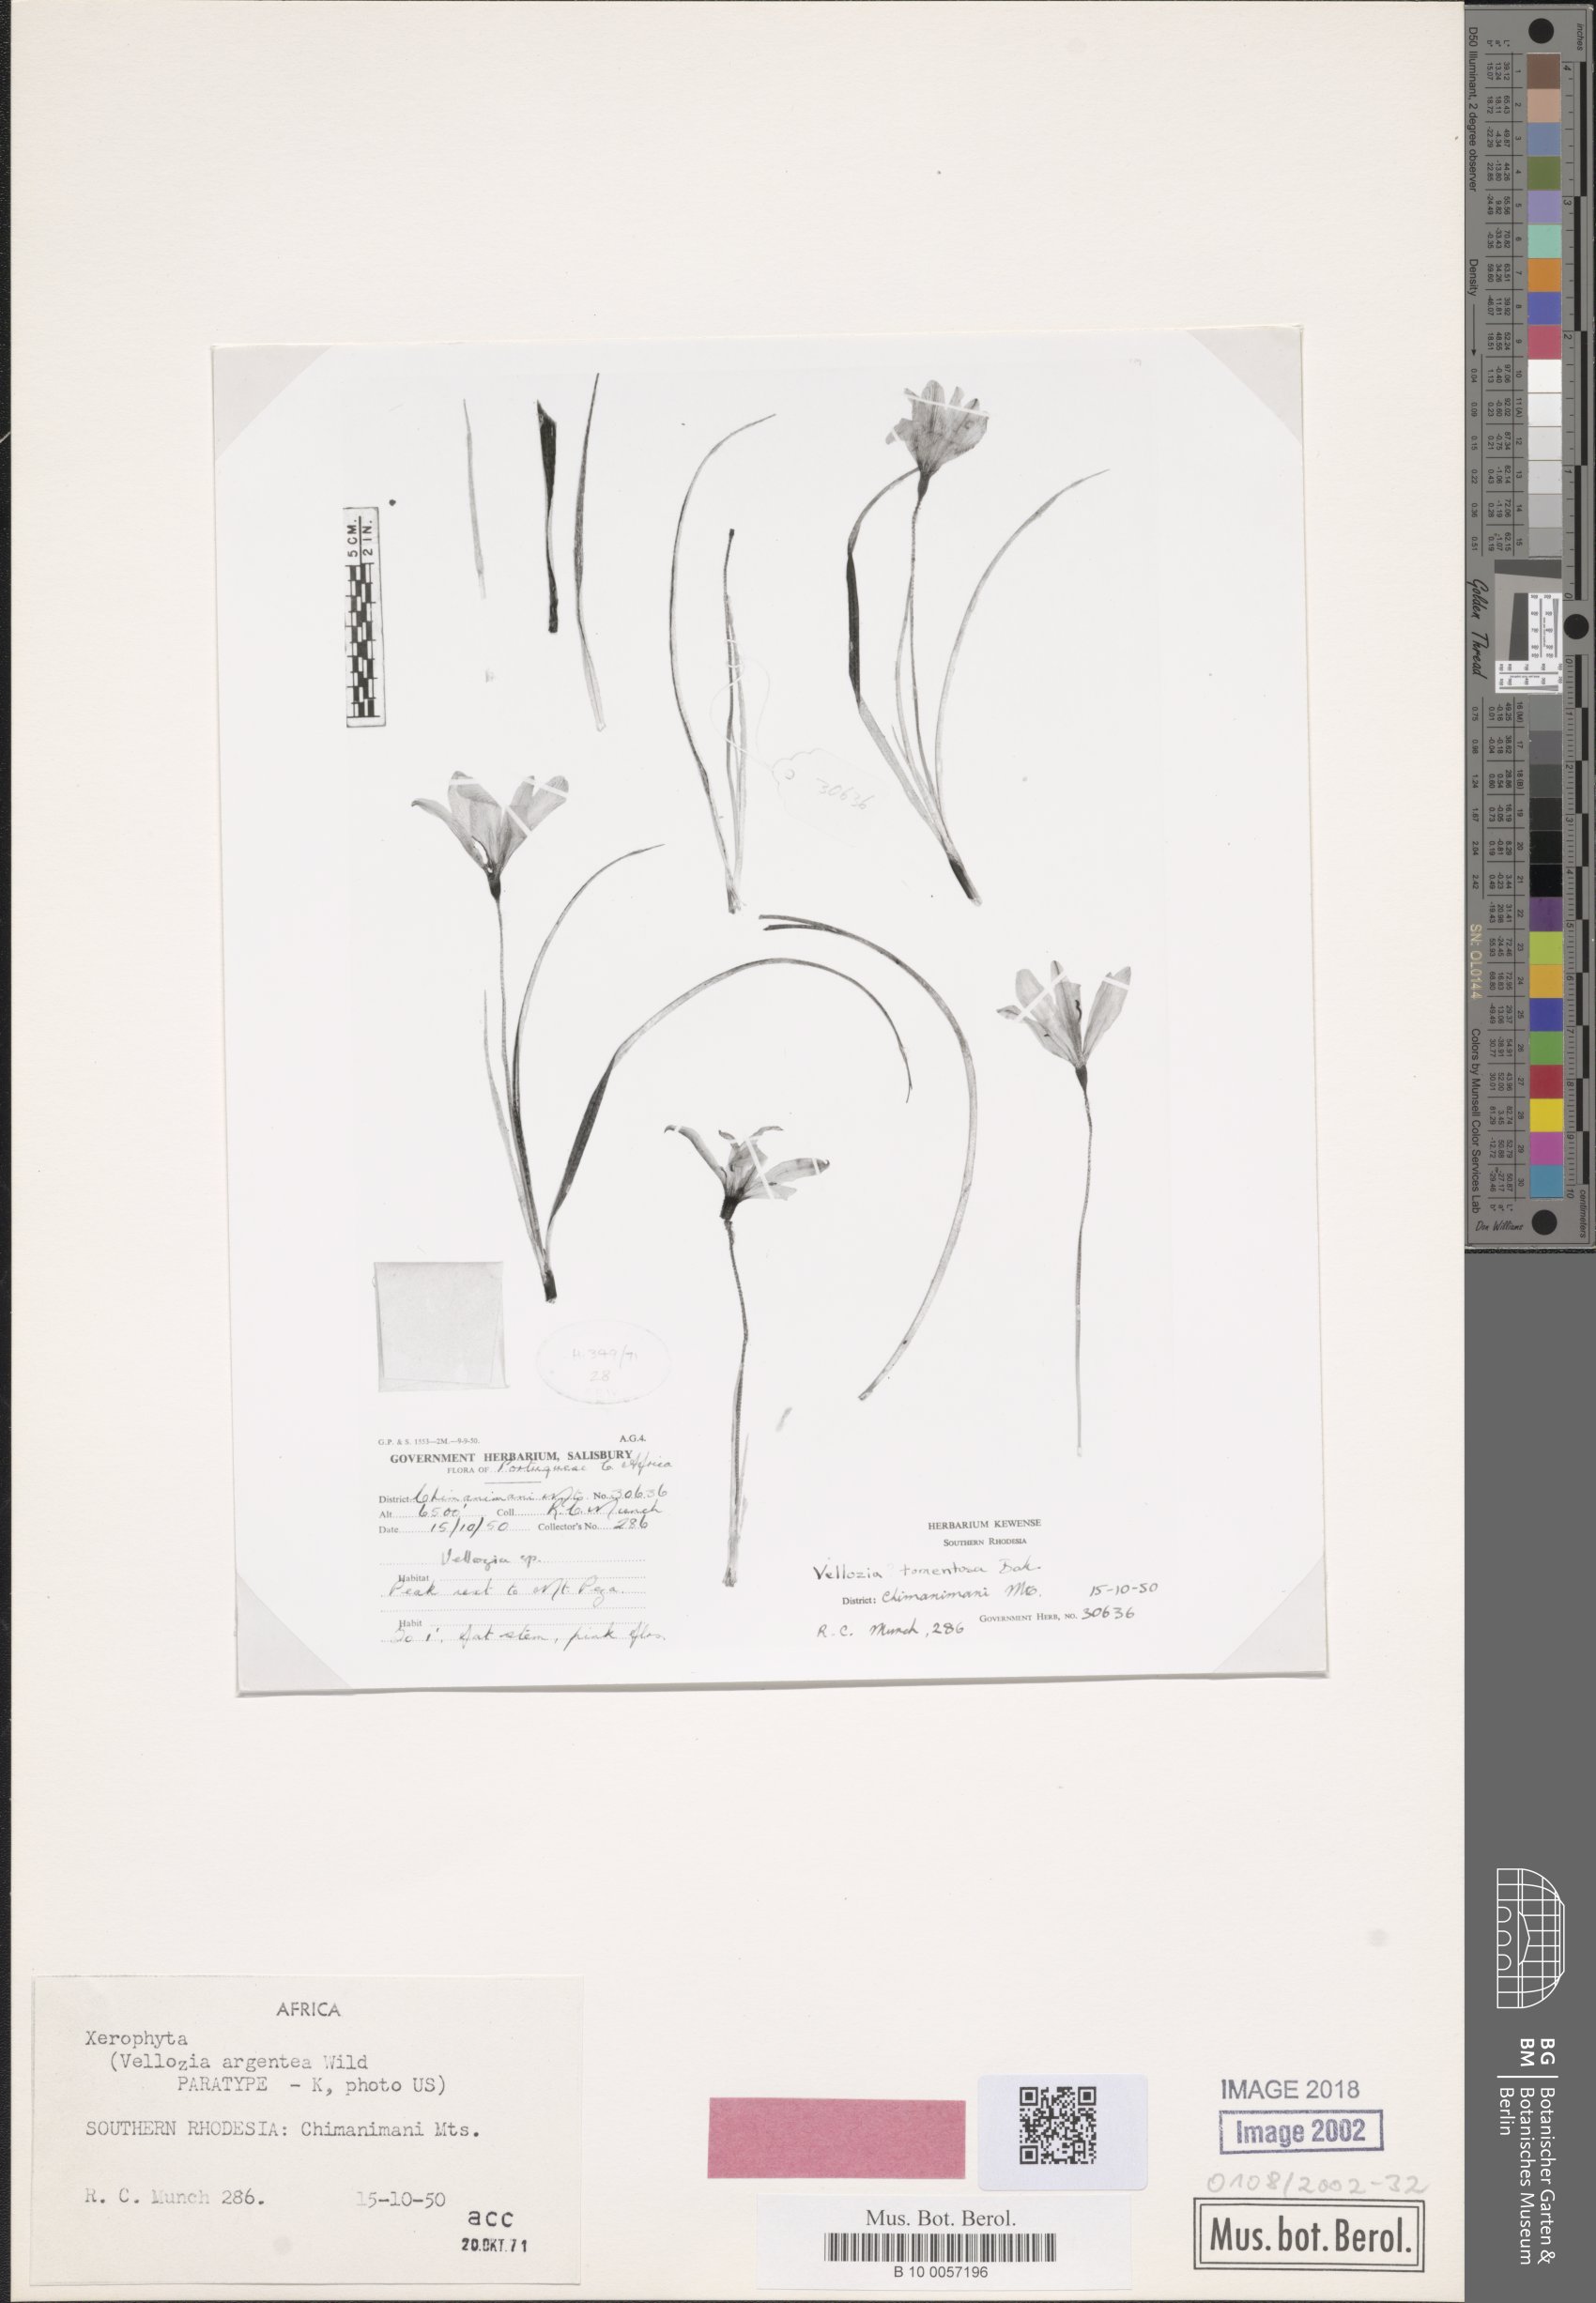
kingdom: Plantae
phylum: Tracheophyta
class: Liliopsida
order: Pandanales
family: Velloziaceae
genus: Xerophyta
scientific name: Xerophyta argentea
